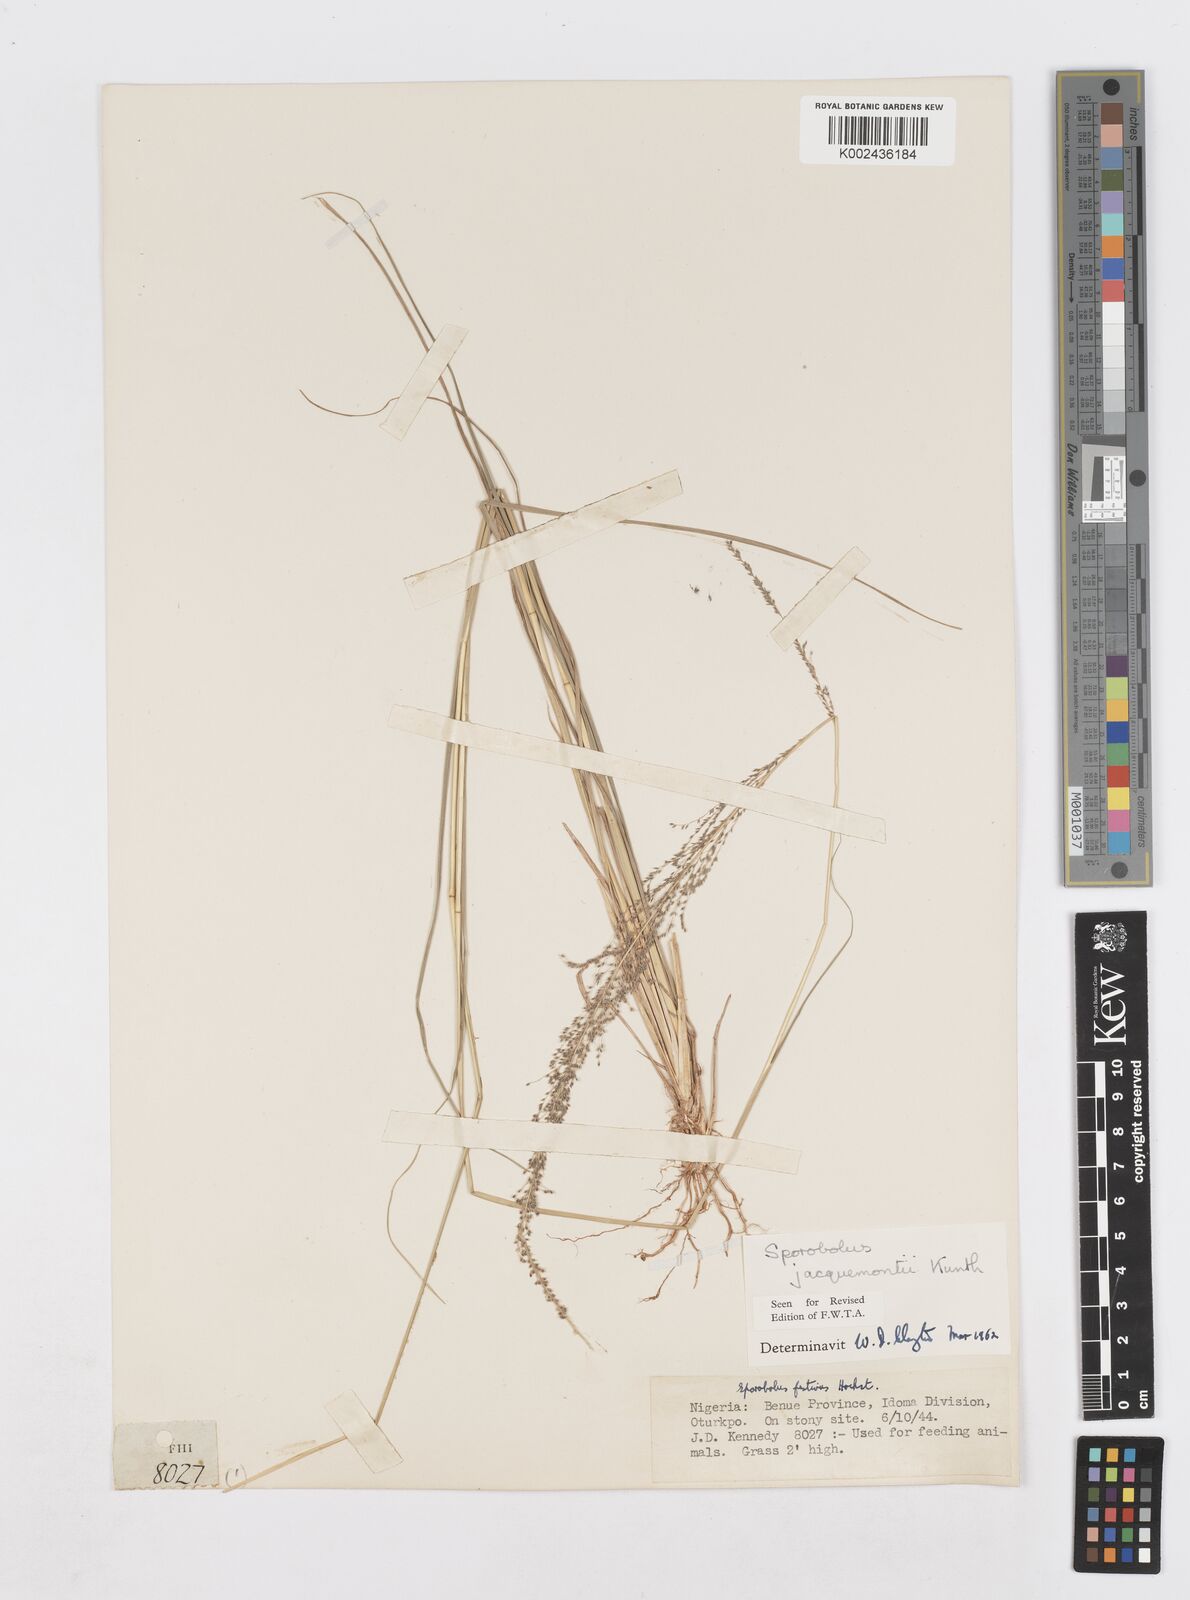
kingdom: Plantae
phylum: Tracheophyta
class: Liliopsida
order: Poales
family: Poaceae
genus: Sporobolus
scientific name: Sporobolus pyramidalis
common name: West indian dropseed
